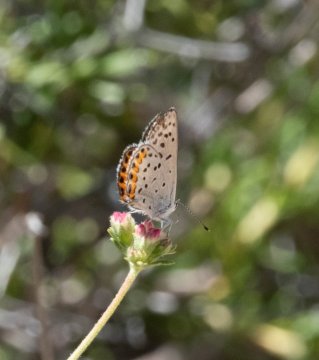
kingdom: Animalia
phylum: Arthropoda
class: Insecta
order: Lepidoptera
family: Lycaenidae
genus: Plebejus
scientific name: Plebejus acmon
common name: Acmon Blue
